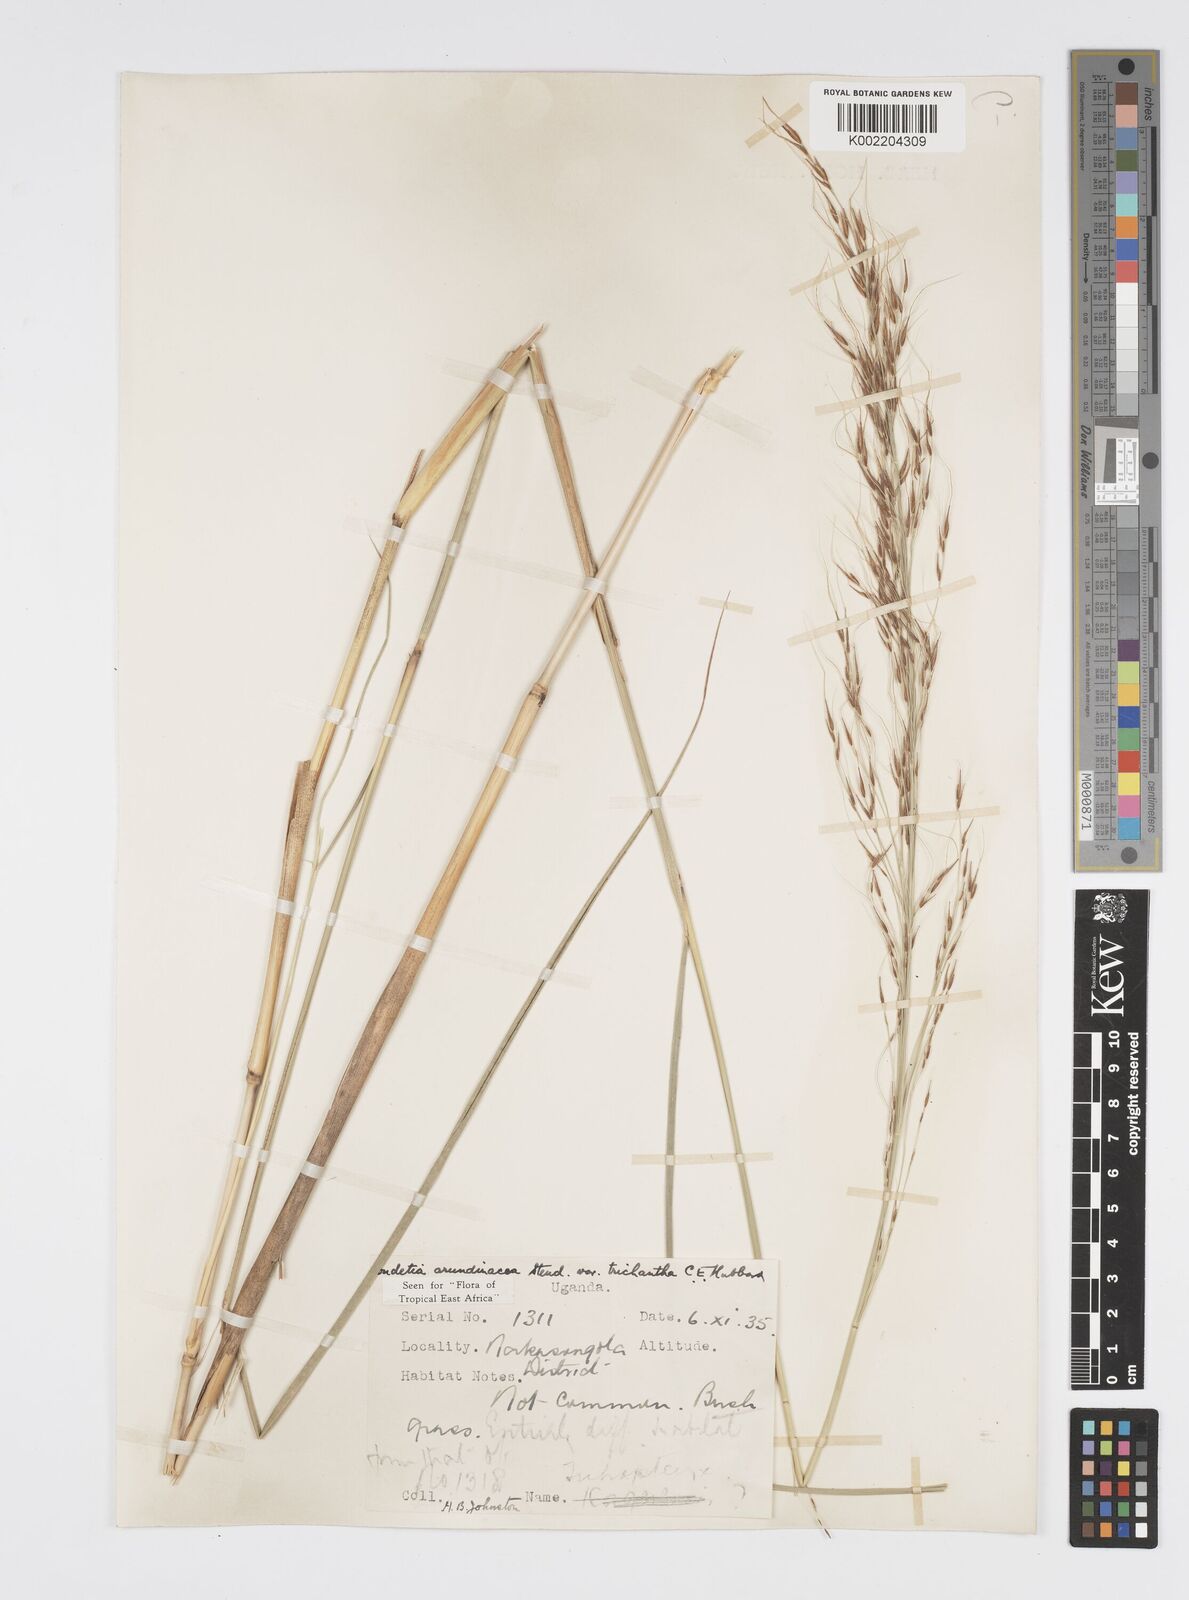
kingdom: Plantae
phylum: Tracheophyta
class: Liliopsida
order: Poales
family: Poaceae
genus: Loudetia
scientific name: Loudetia arundinacea
